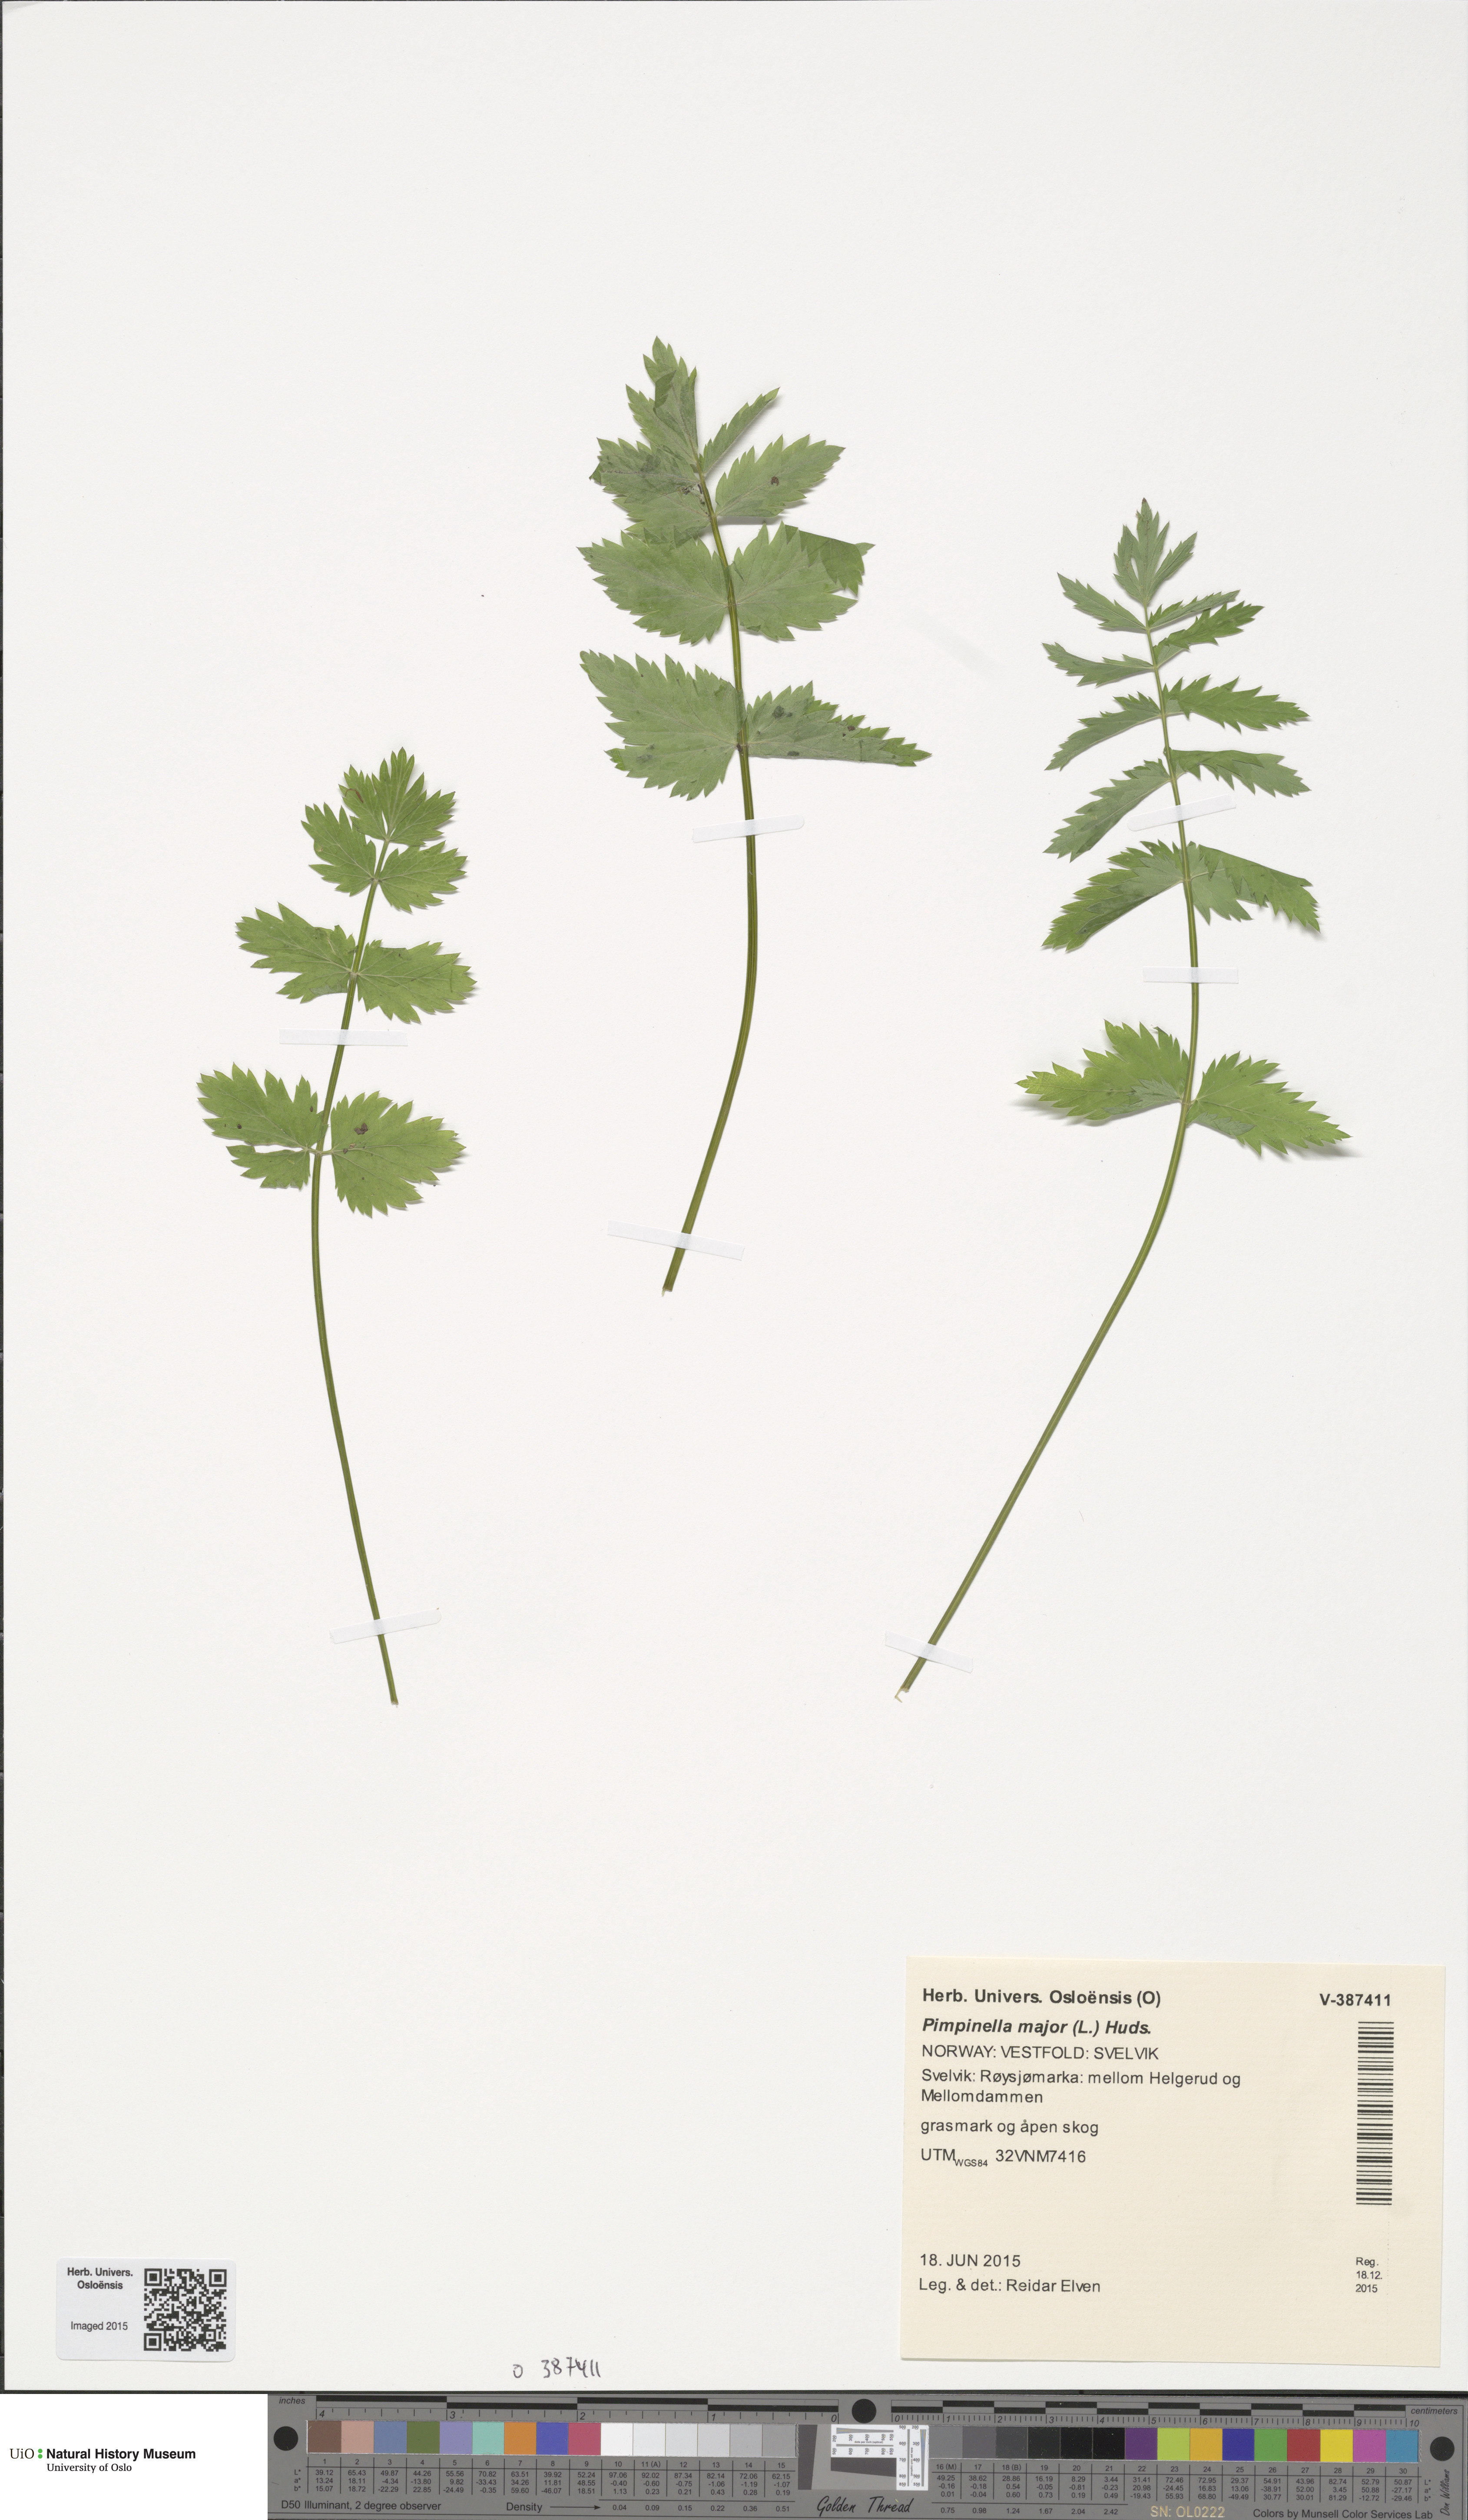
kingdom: Plantae
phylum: Tracheophyta
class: Magnoliopsida
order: Apiales
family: Apiaceae
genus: Pimpinella
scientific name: Pimpinella major
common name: Greater burnet-saxifrage
